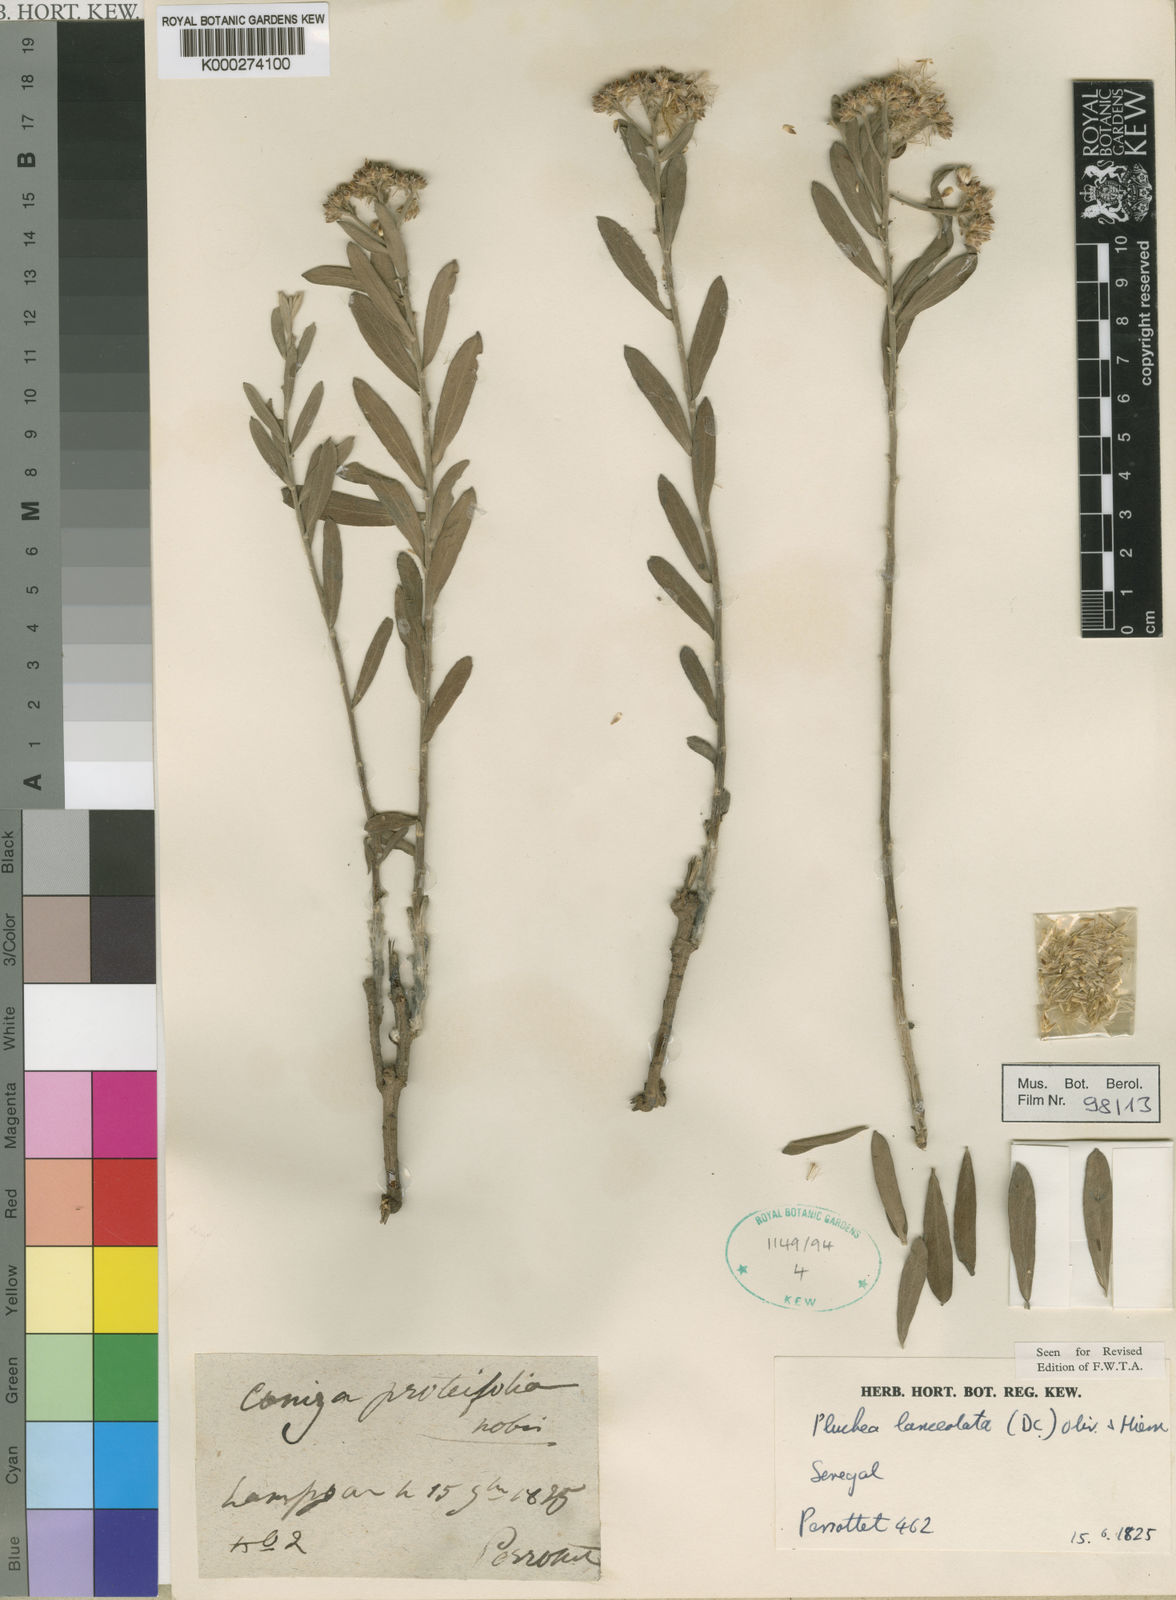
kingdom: Plantae
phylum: Tracheophyta
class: Magnoliopsida
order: Asterales
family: Asteraceae
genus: Pluchea
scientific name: Pluchea lanceolata
